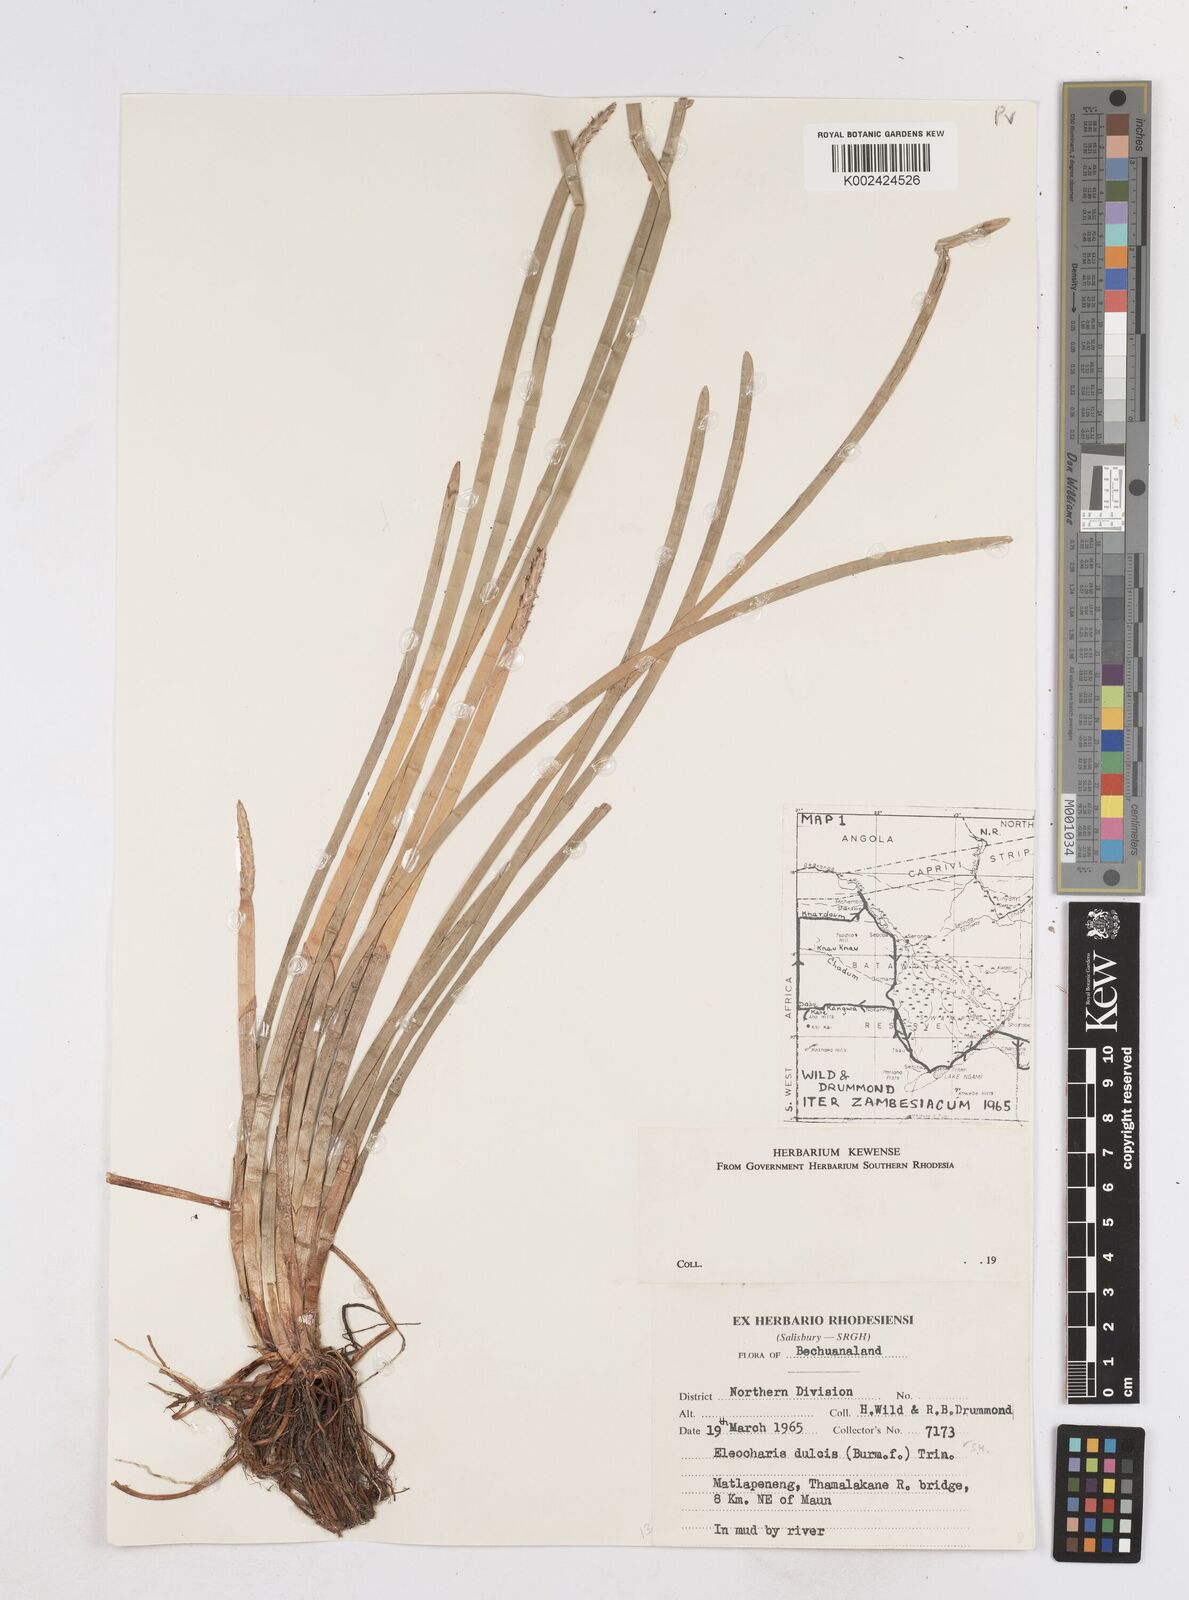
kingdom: Plantae
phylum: Tracheophyta
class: Liliopsida
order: Poales
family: Cyperaceae
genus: Eleocharis
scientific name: Eleocharis dulcis
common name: Chinese water chestnut
